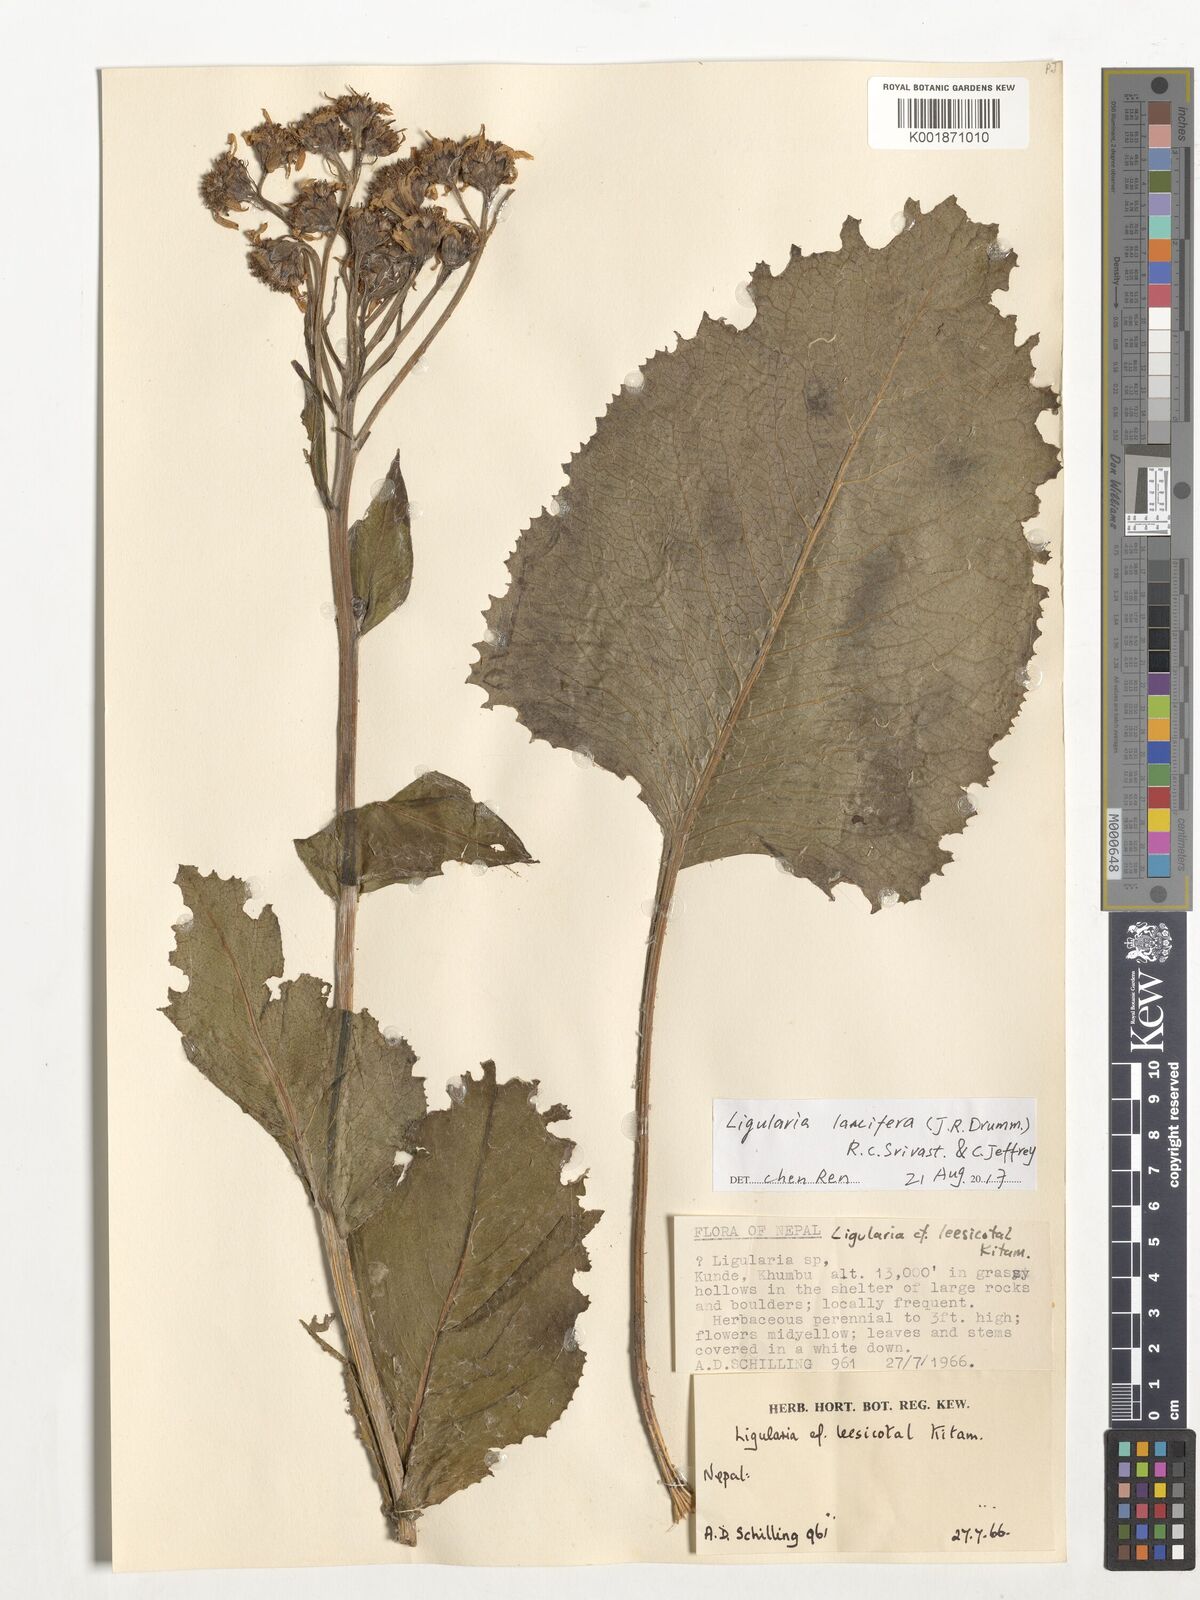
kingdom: Plantae
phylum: Tracheophyta
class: Magnoliopsida
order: Asterales
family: Asteraceae
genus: Ligularia
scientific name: Ligularia lancifera
